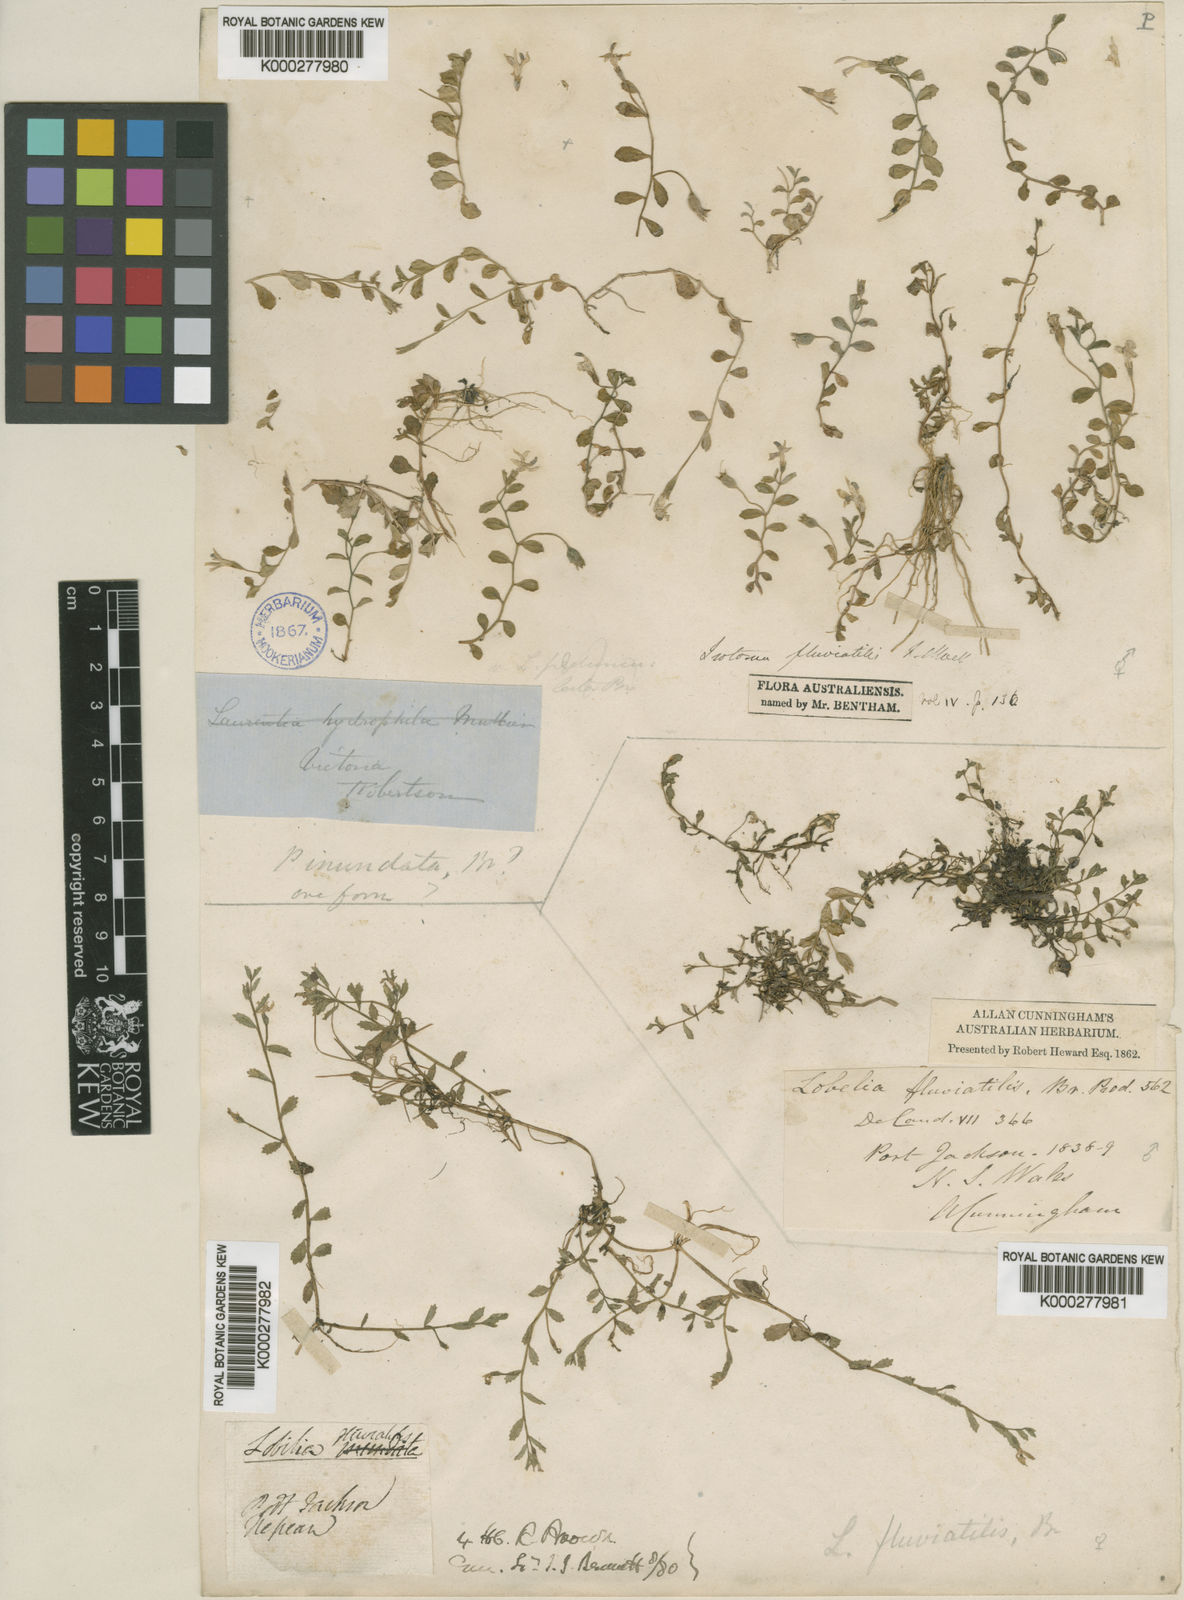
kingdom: Plantae
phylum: Tracheophyta
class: Magnoliopsida
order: Asterales
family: Campanulaceae
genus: Isotoma
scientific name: Isotoma
